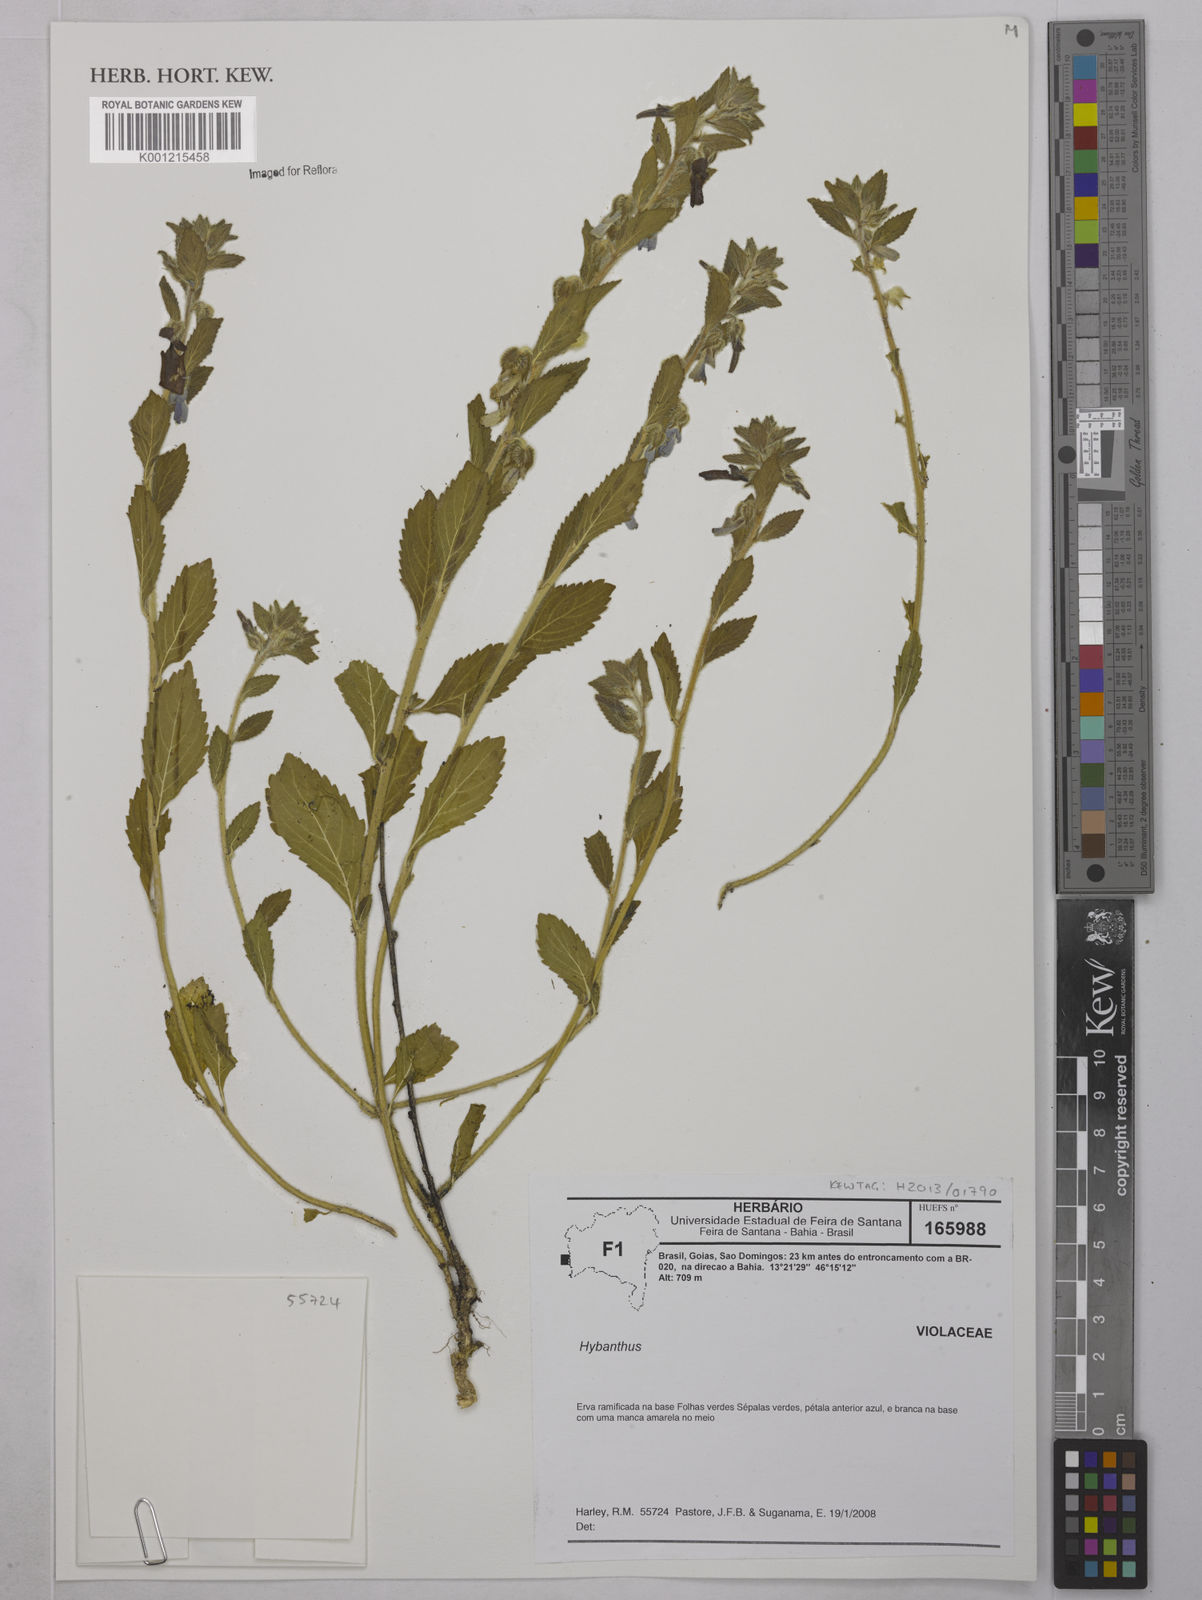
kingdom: Plantae
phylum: Tracheophyta
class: Magnoliopsida
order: Malpighiales
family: Violaceae
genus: Hybanthus
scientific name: Hybanthus
